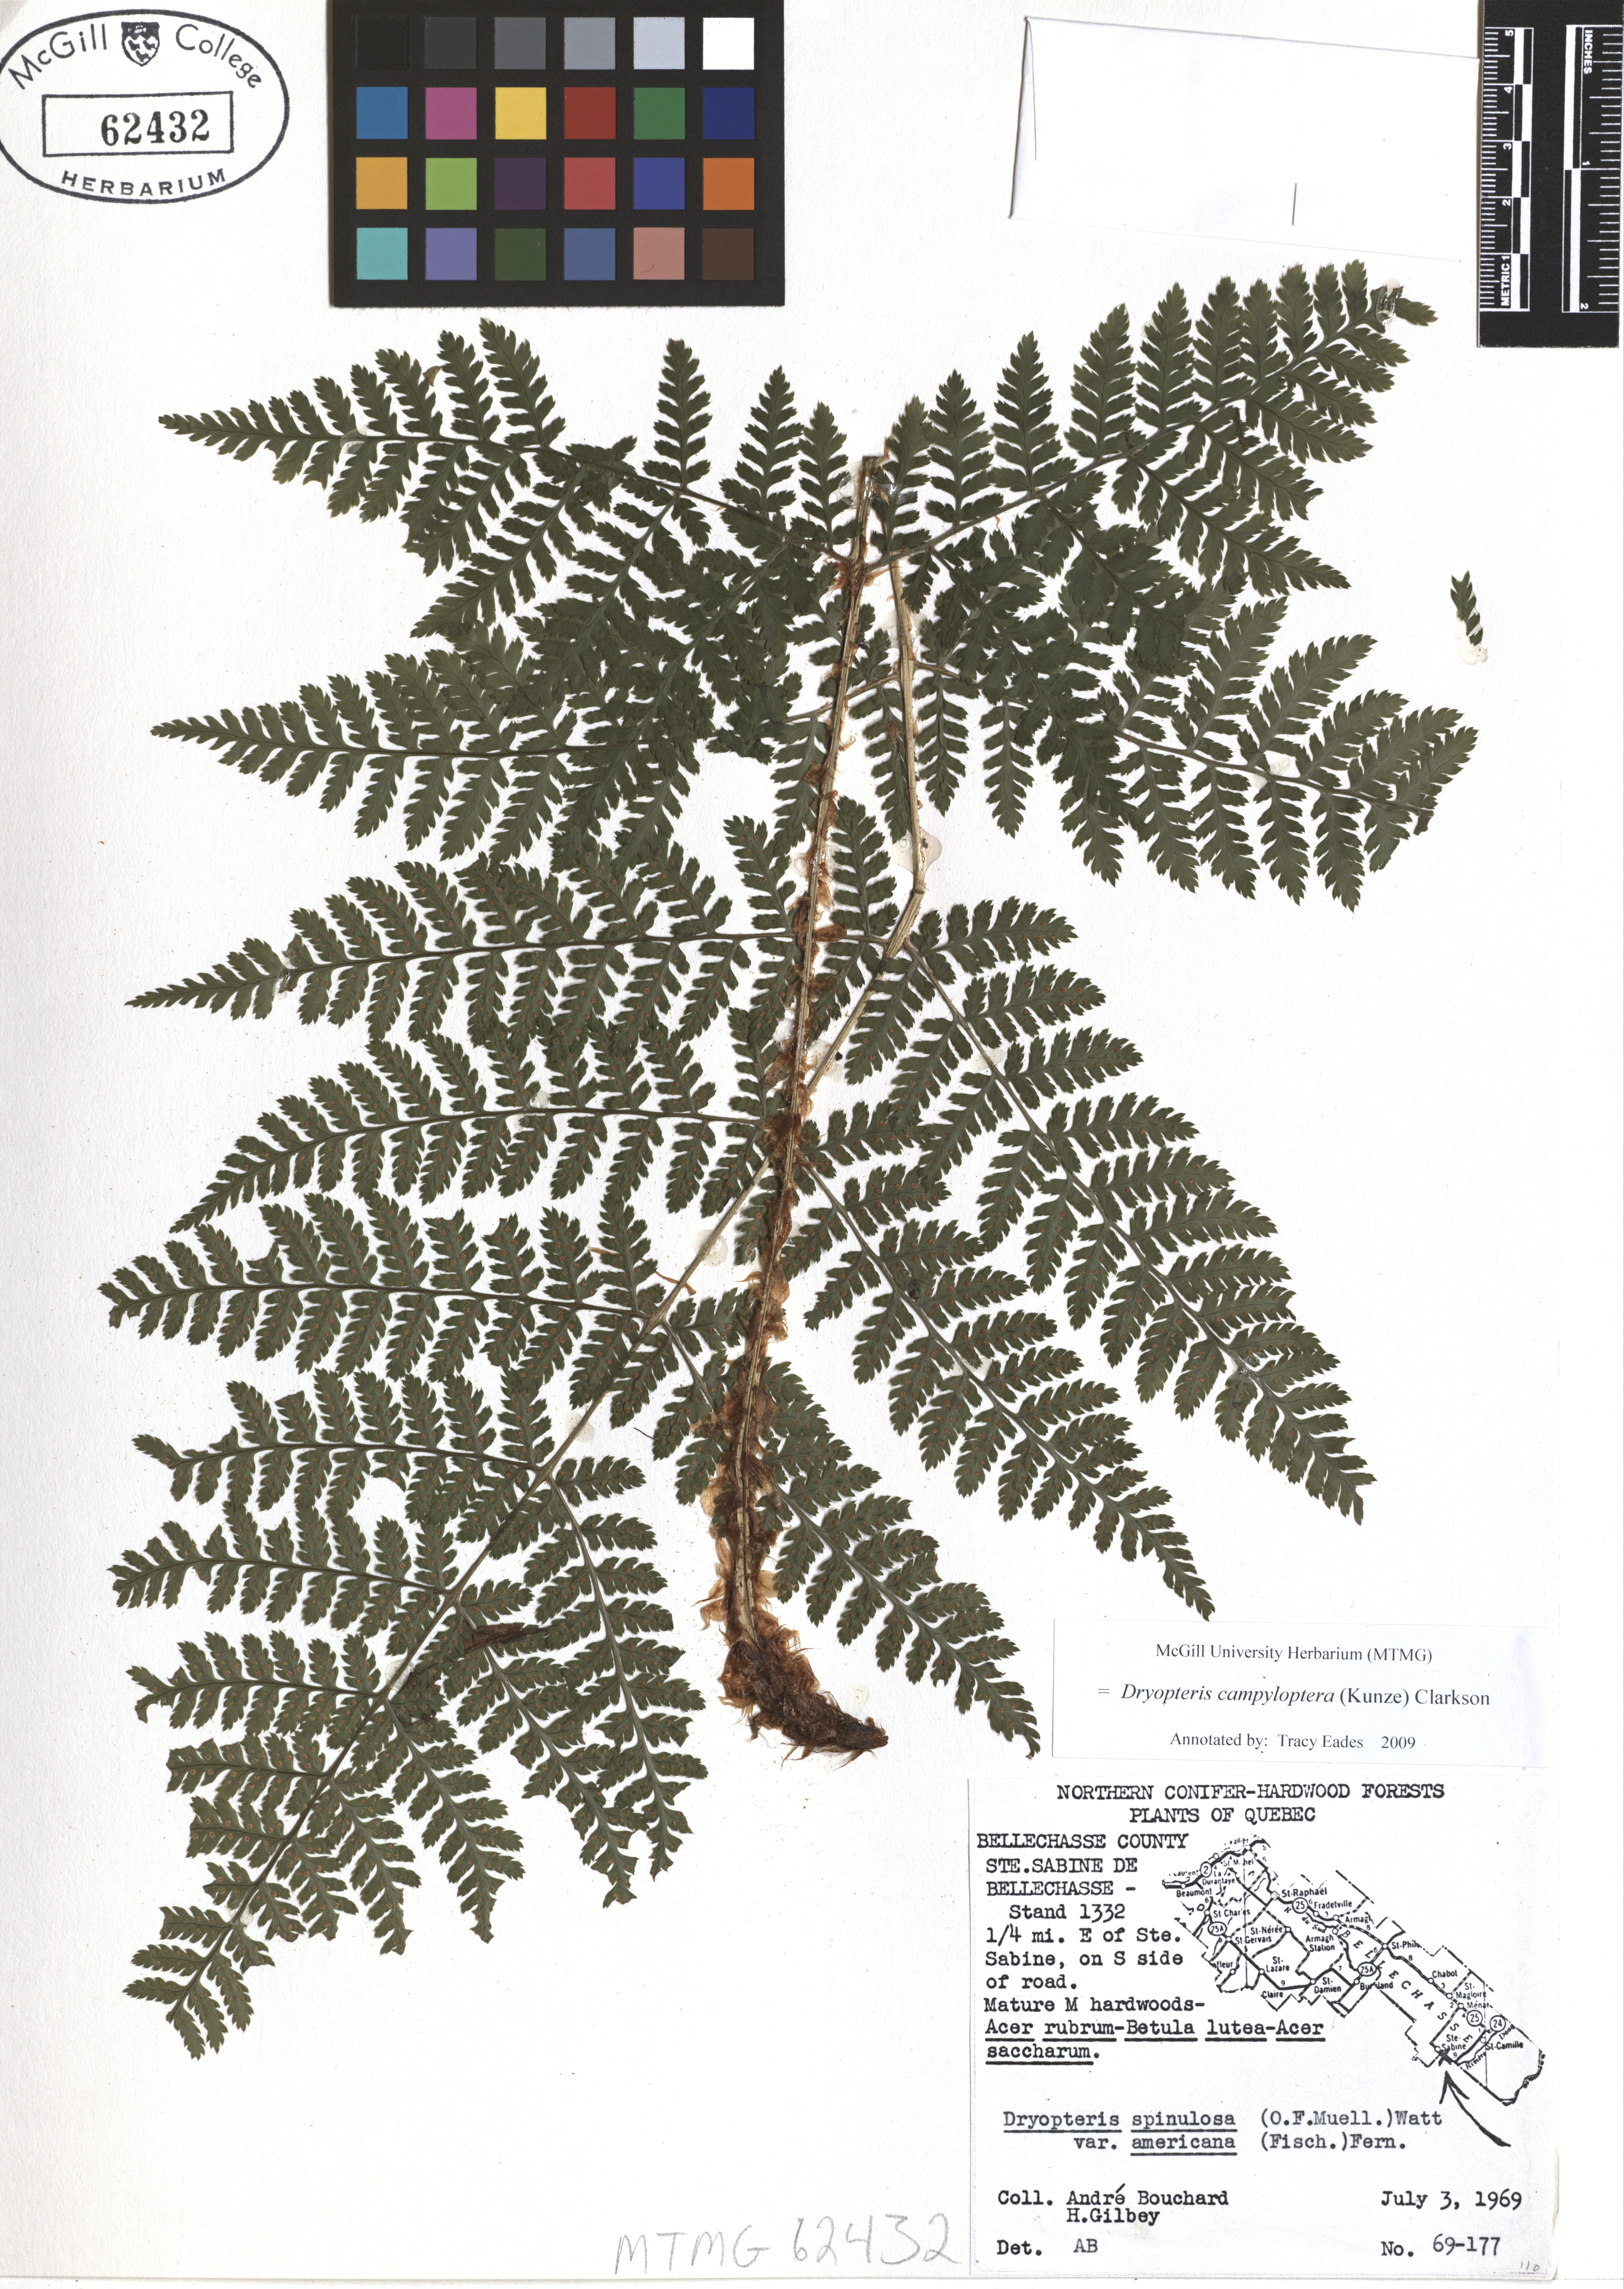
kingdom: Plantae
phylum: Tracheophyta
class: Polypodiopsida
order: Polypodiales
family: Dryopteridaceae
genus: Dryopteris
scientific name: Dryopteris campyloptera
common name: Mountain wood fern
